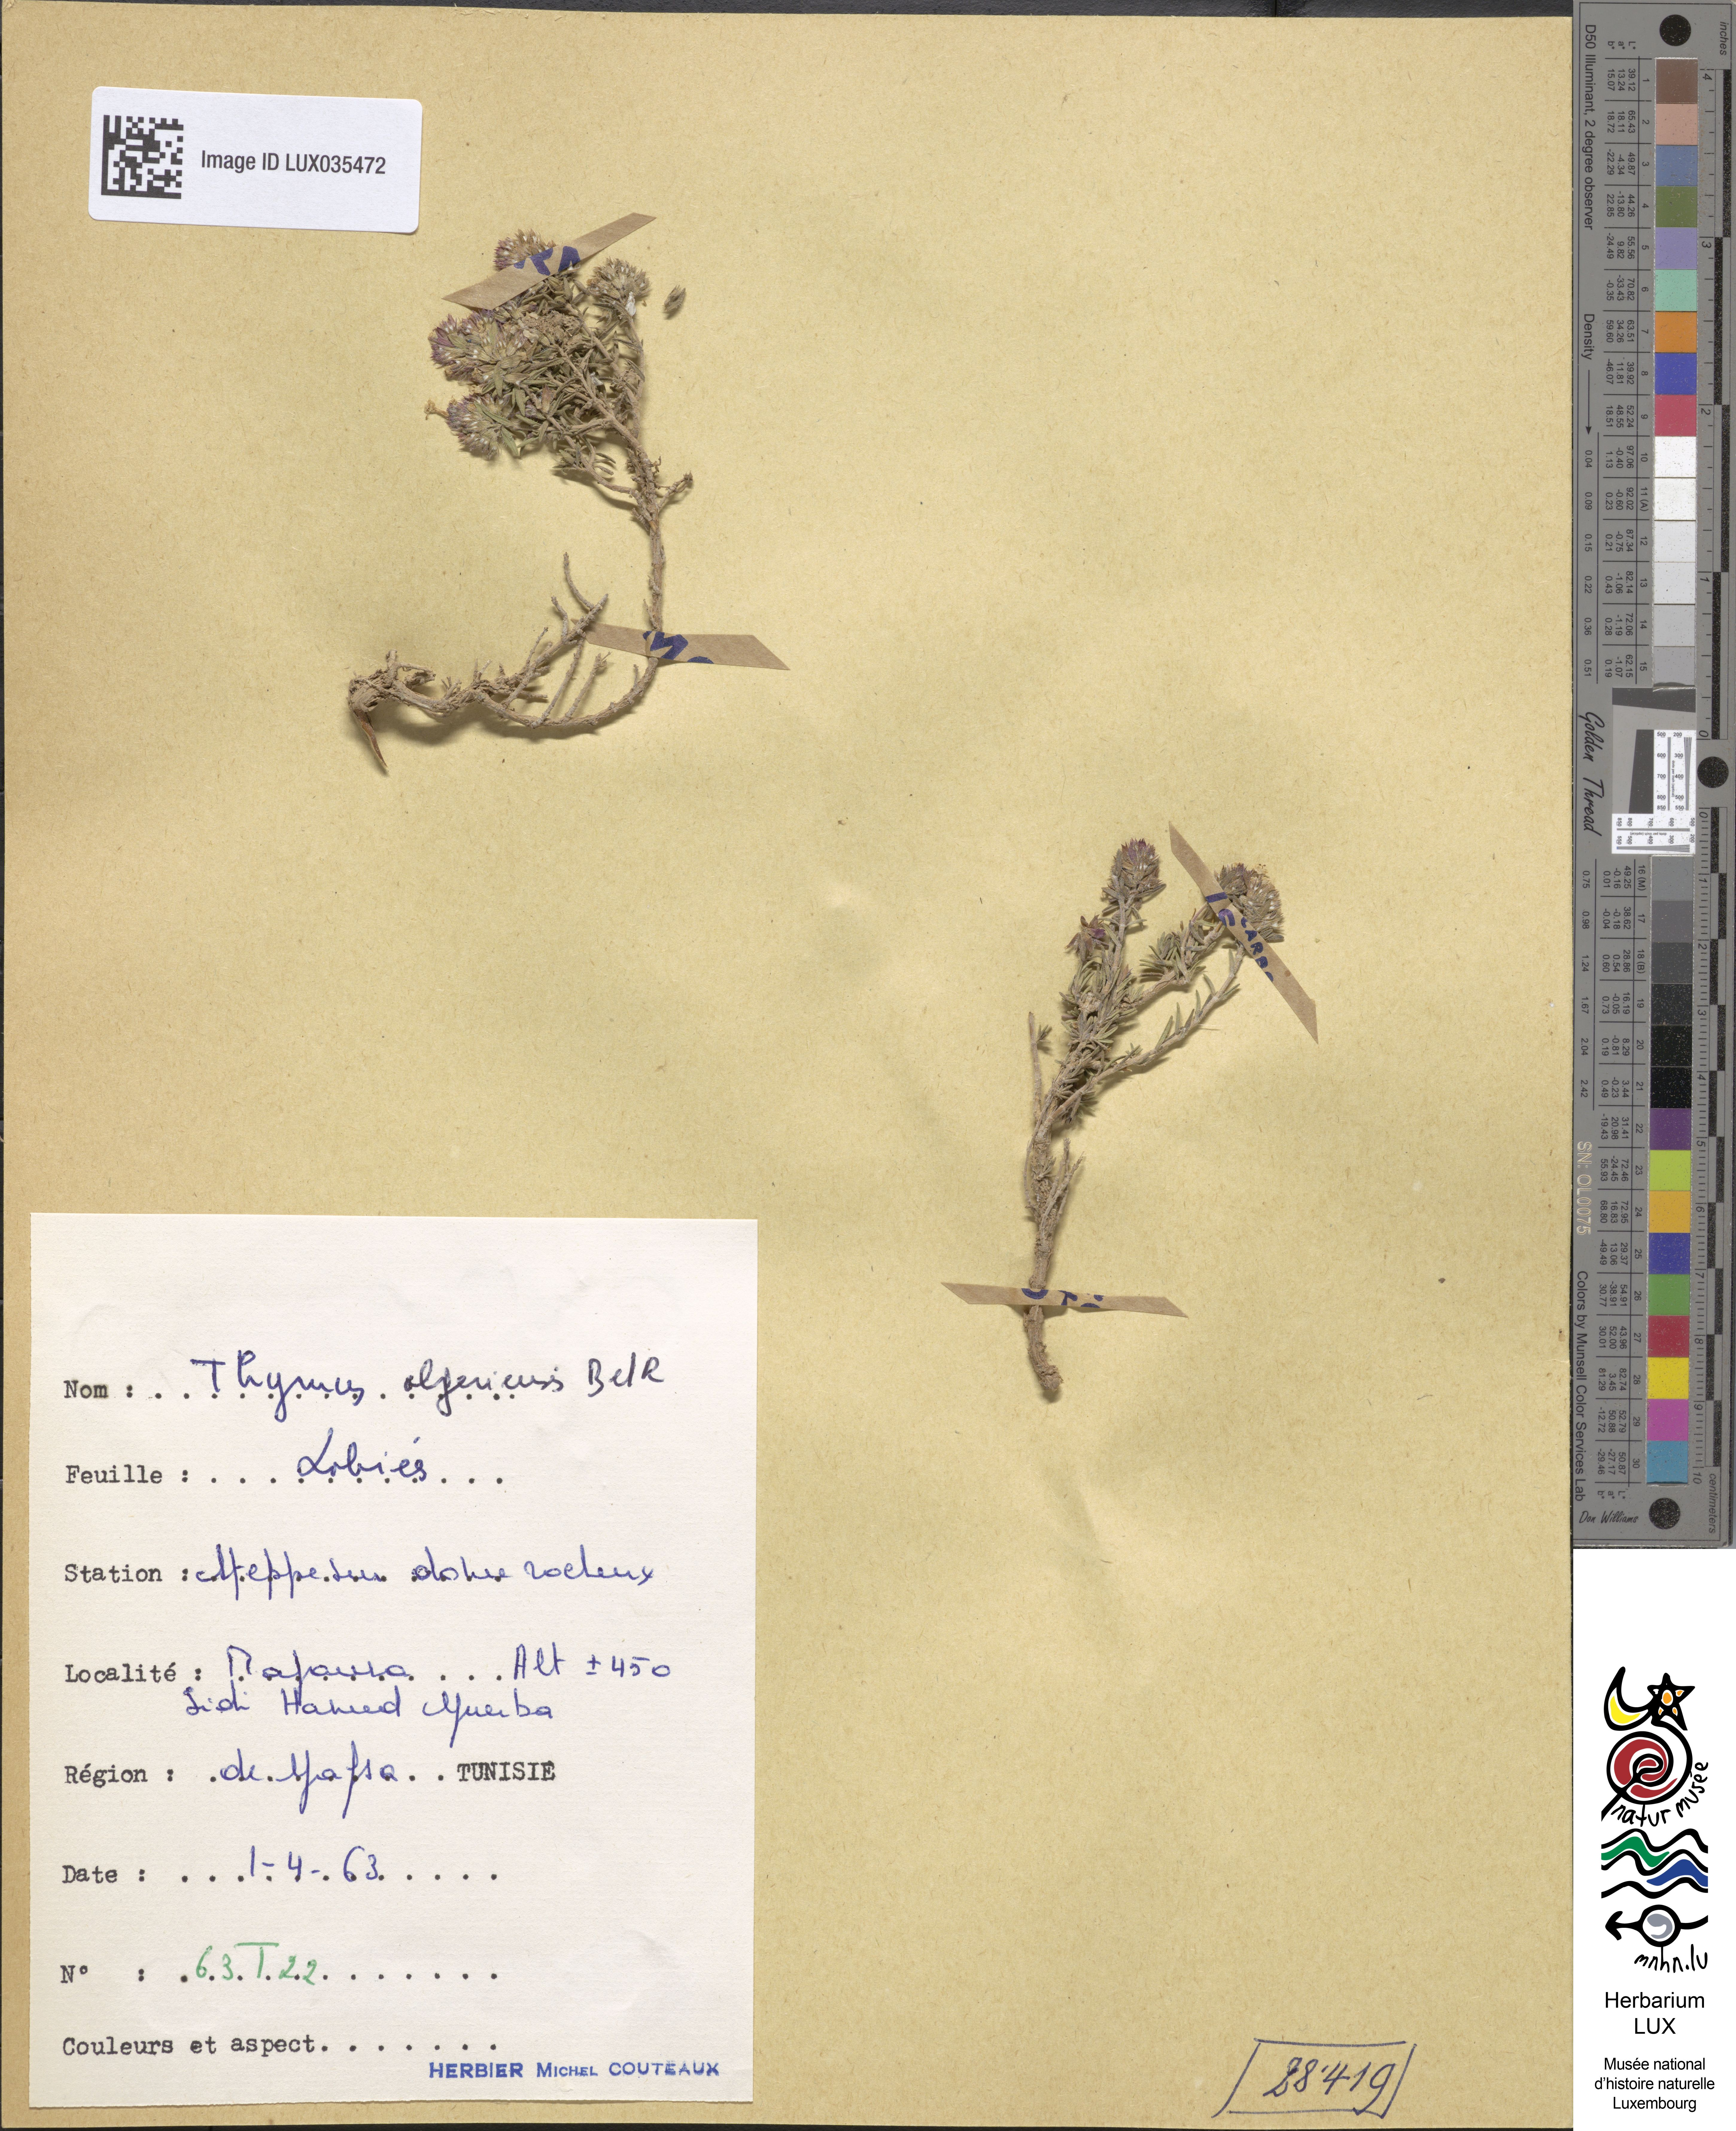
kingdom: Plantae
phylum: Tracheophyta
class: Magnoliopsida
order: Lamiales
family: Lamiaceae
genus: Thymus
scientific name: Thymus algeriensis
